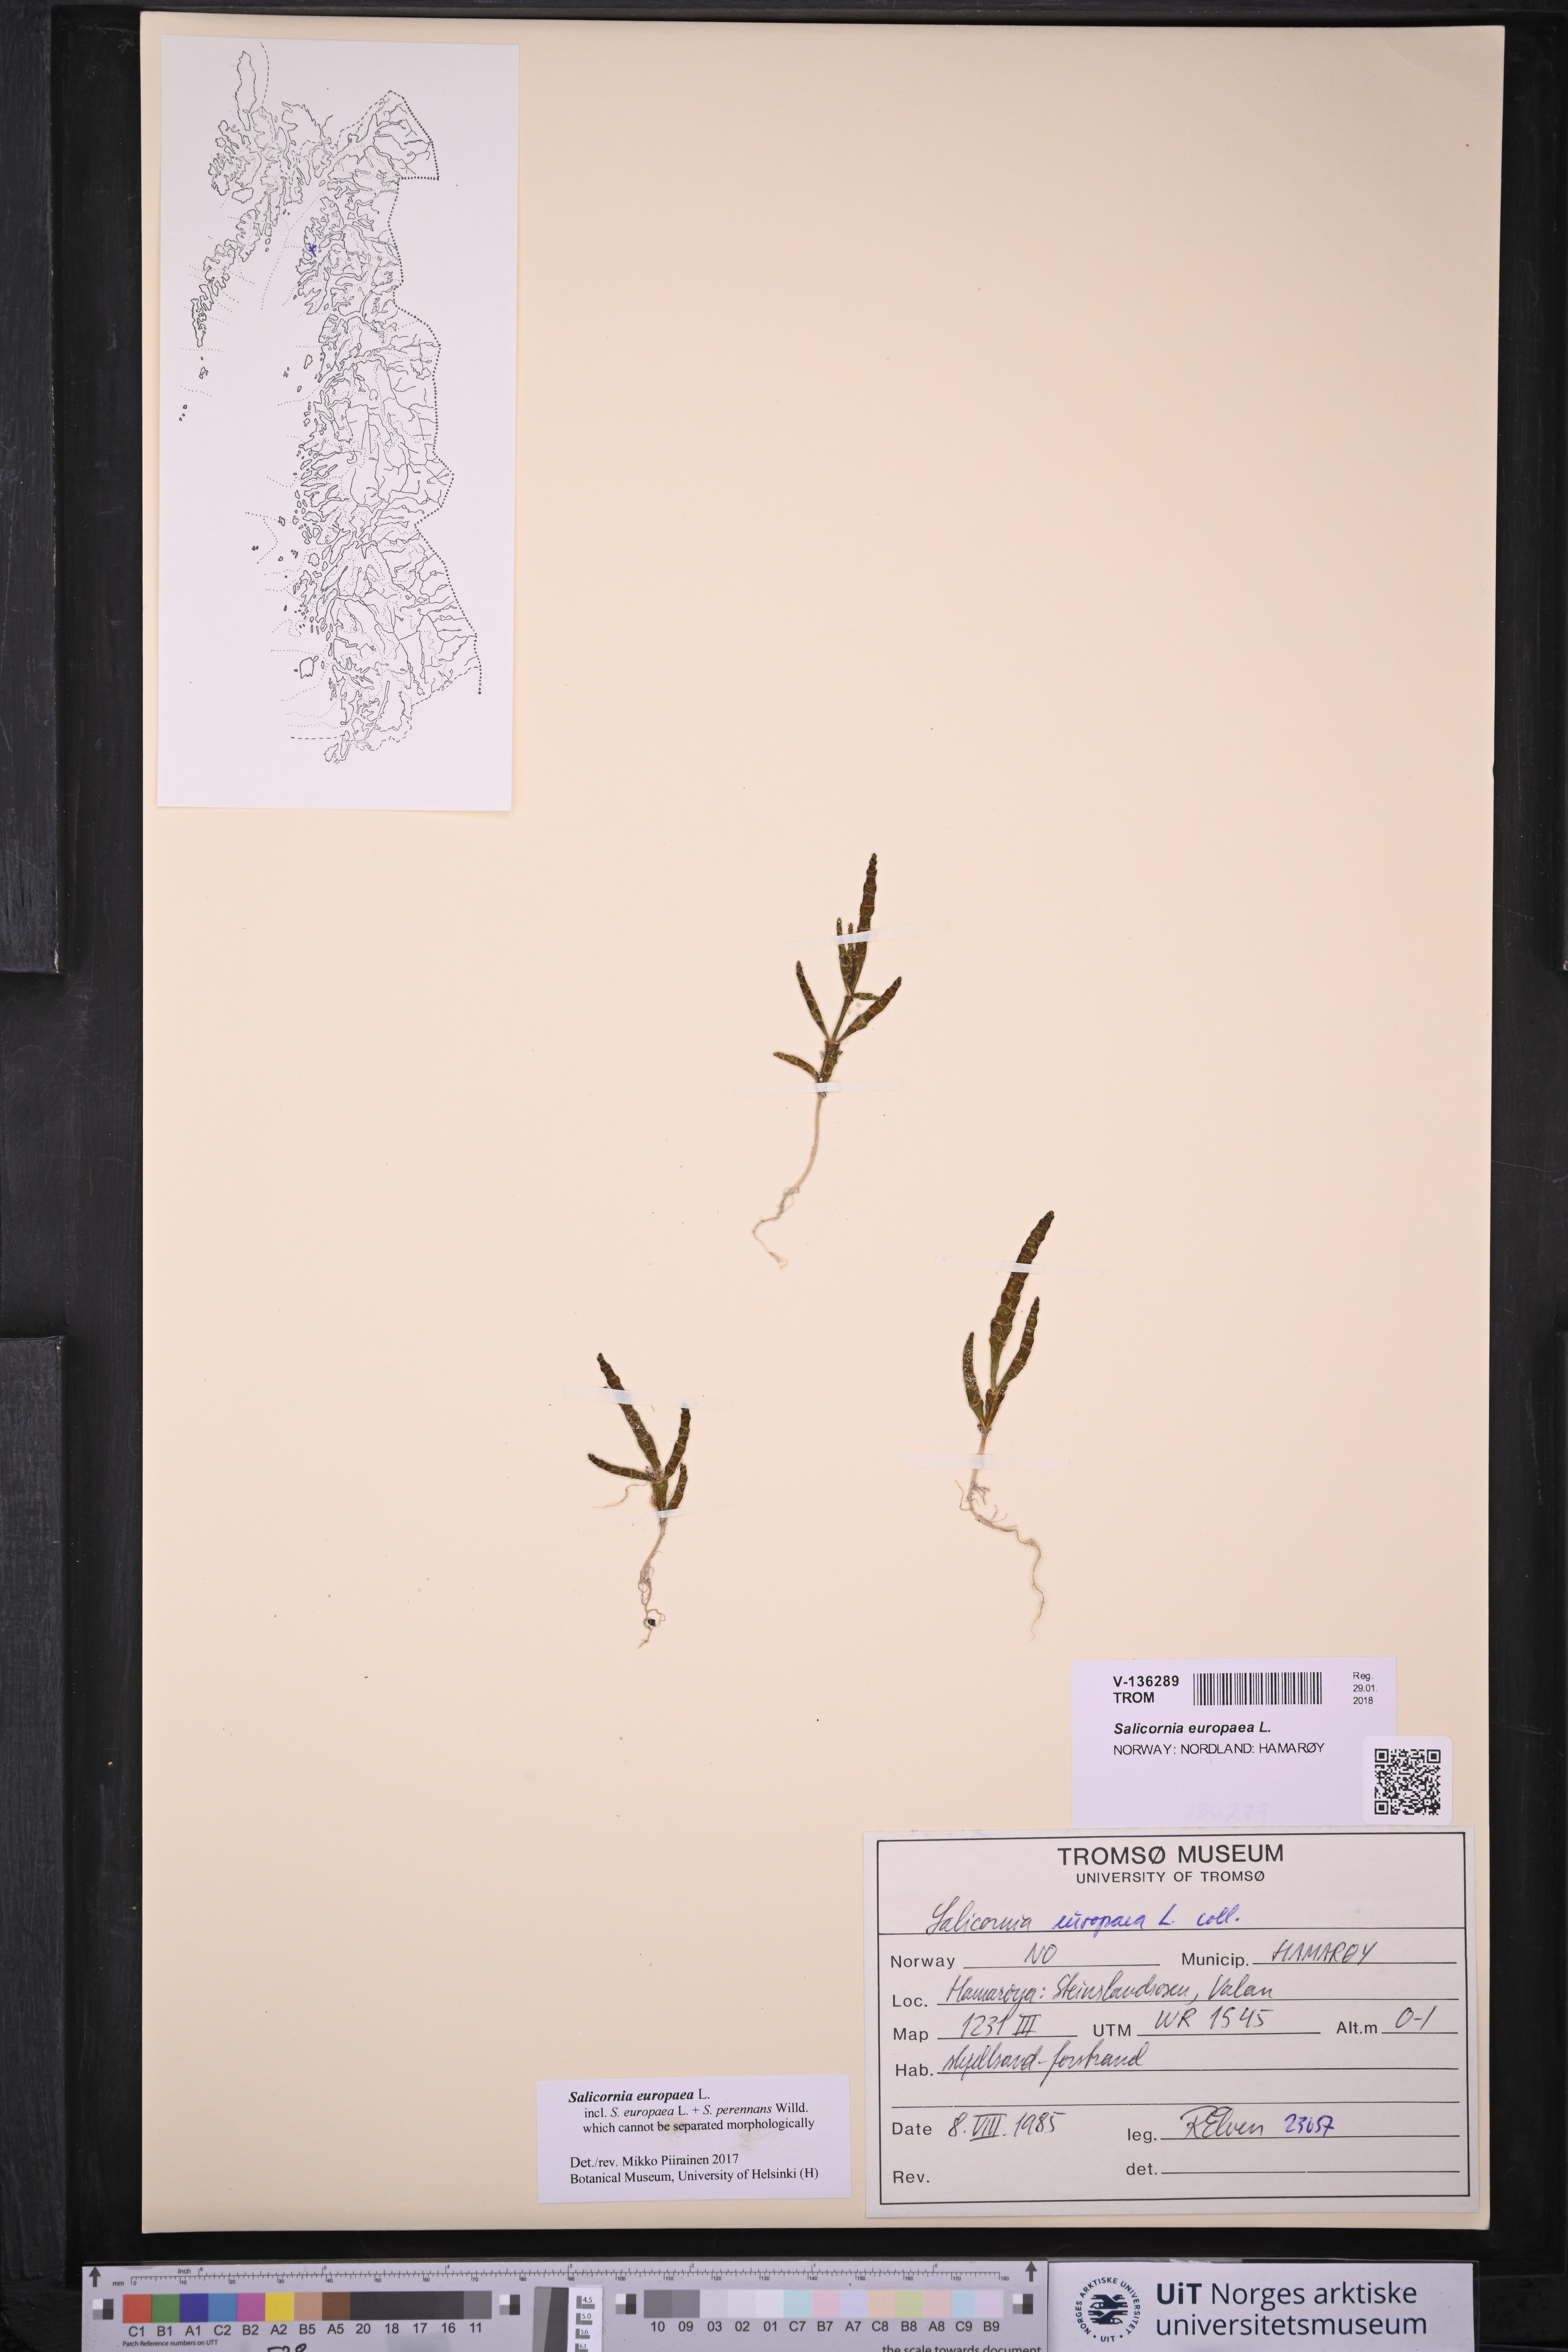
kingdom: Plantae
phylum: Tracheophyta
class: Magnoliopsida
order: Caryophyllales
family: Amaranthaceae
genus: Salicornia
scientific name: Salicornia europaea
